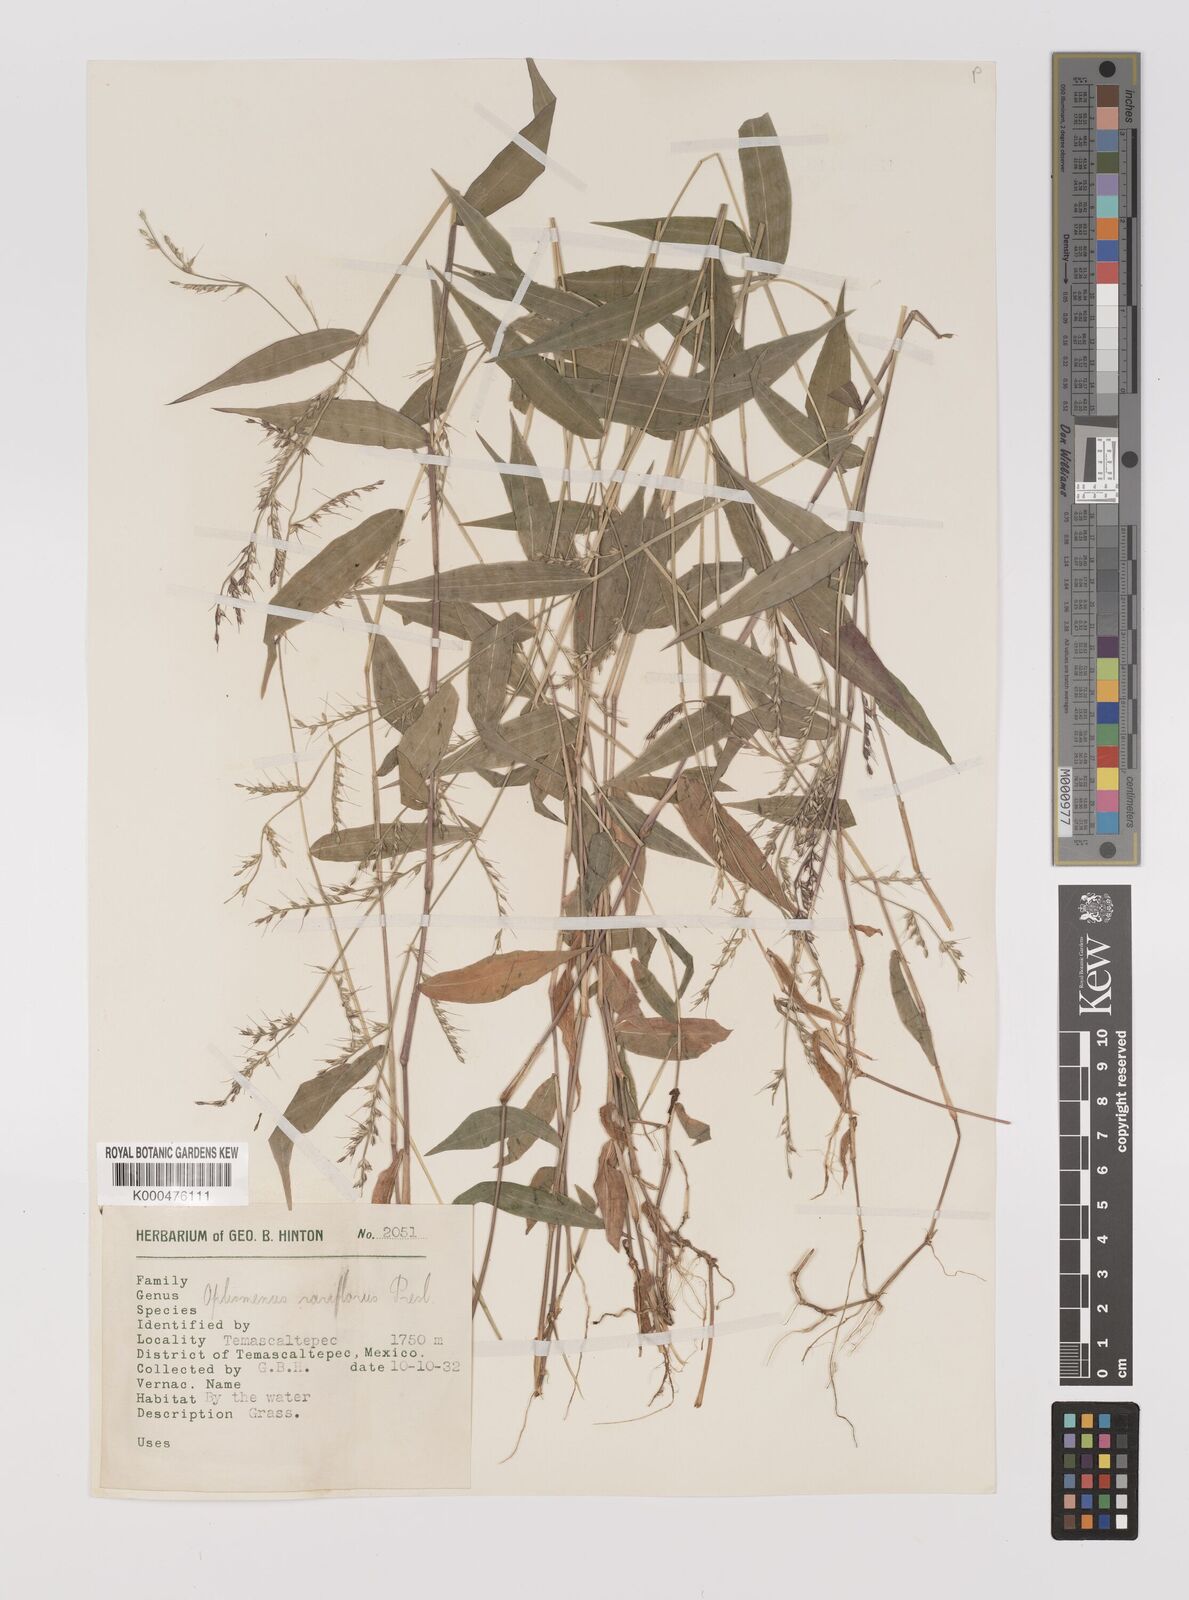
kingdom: Plantae
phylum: Tracheophyta
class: Liliopsida
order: Poales
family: Poaceae
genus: Oplismenus
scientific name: Oplismenus compositus
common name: Running mountain grass
